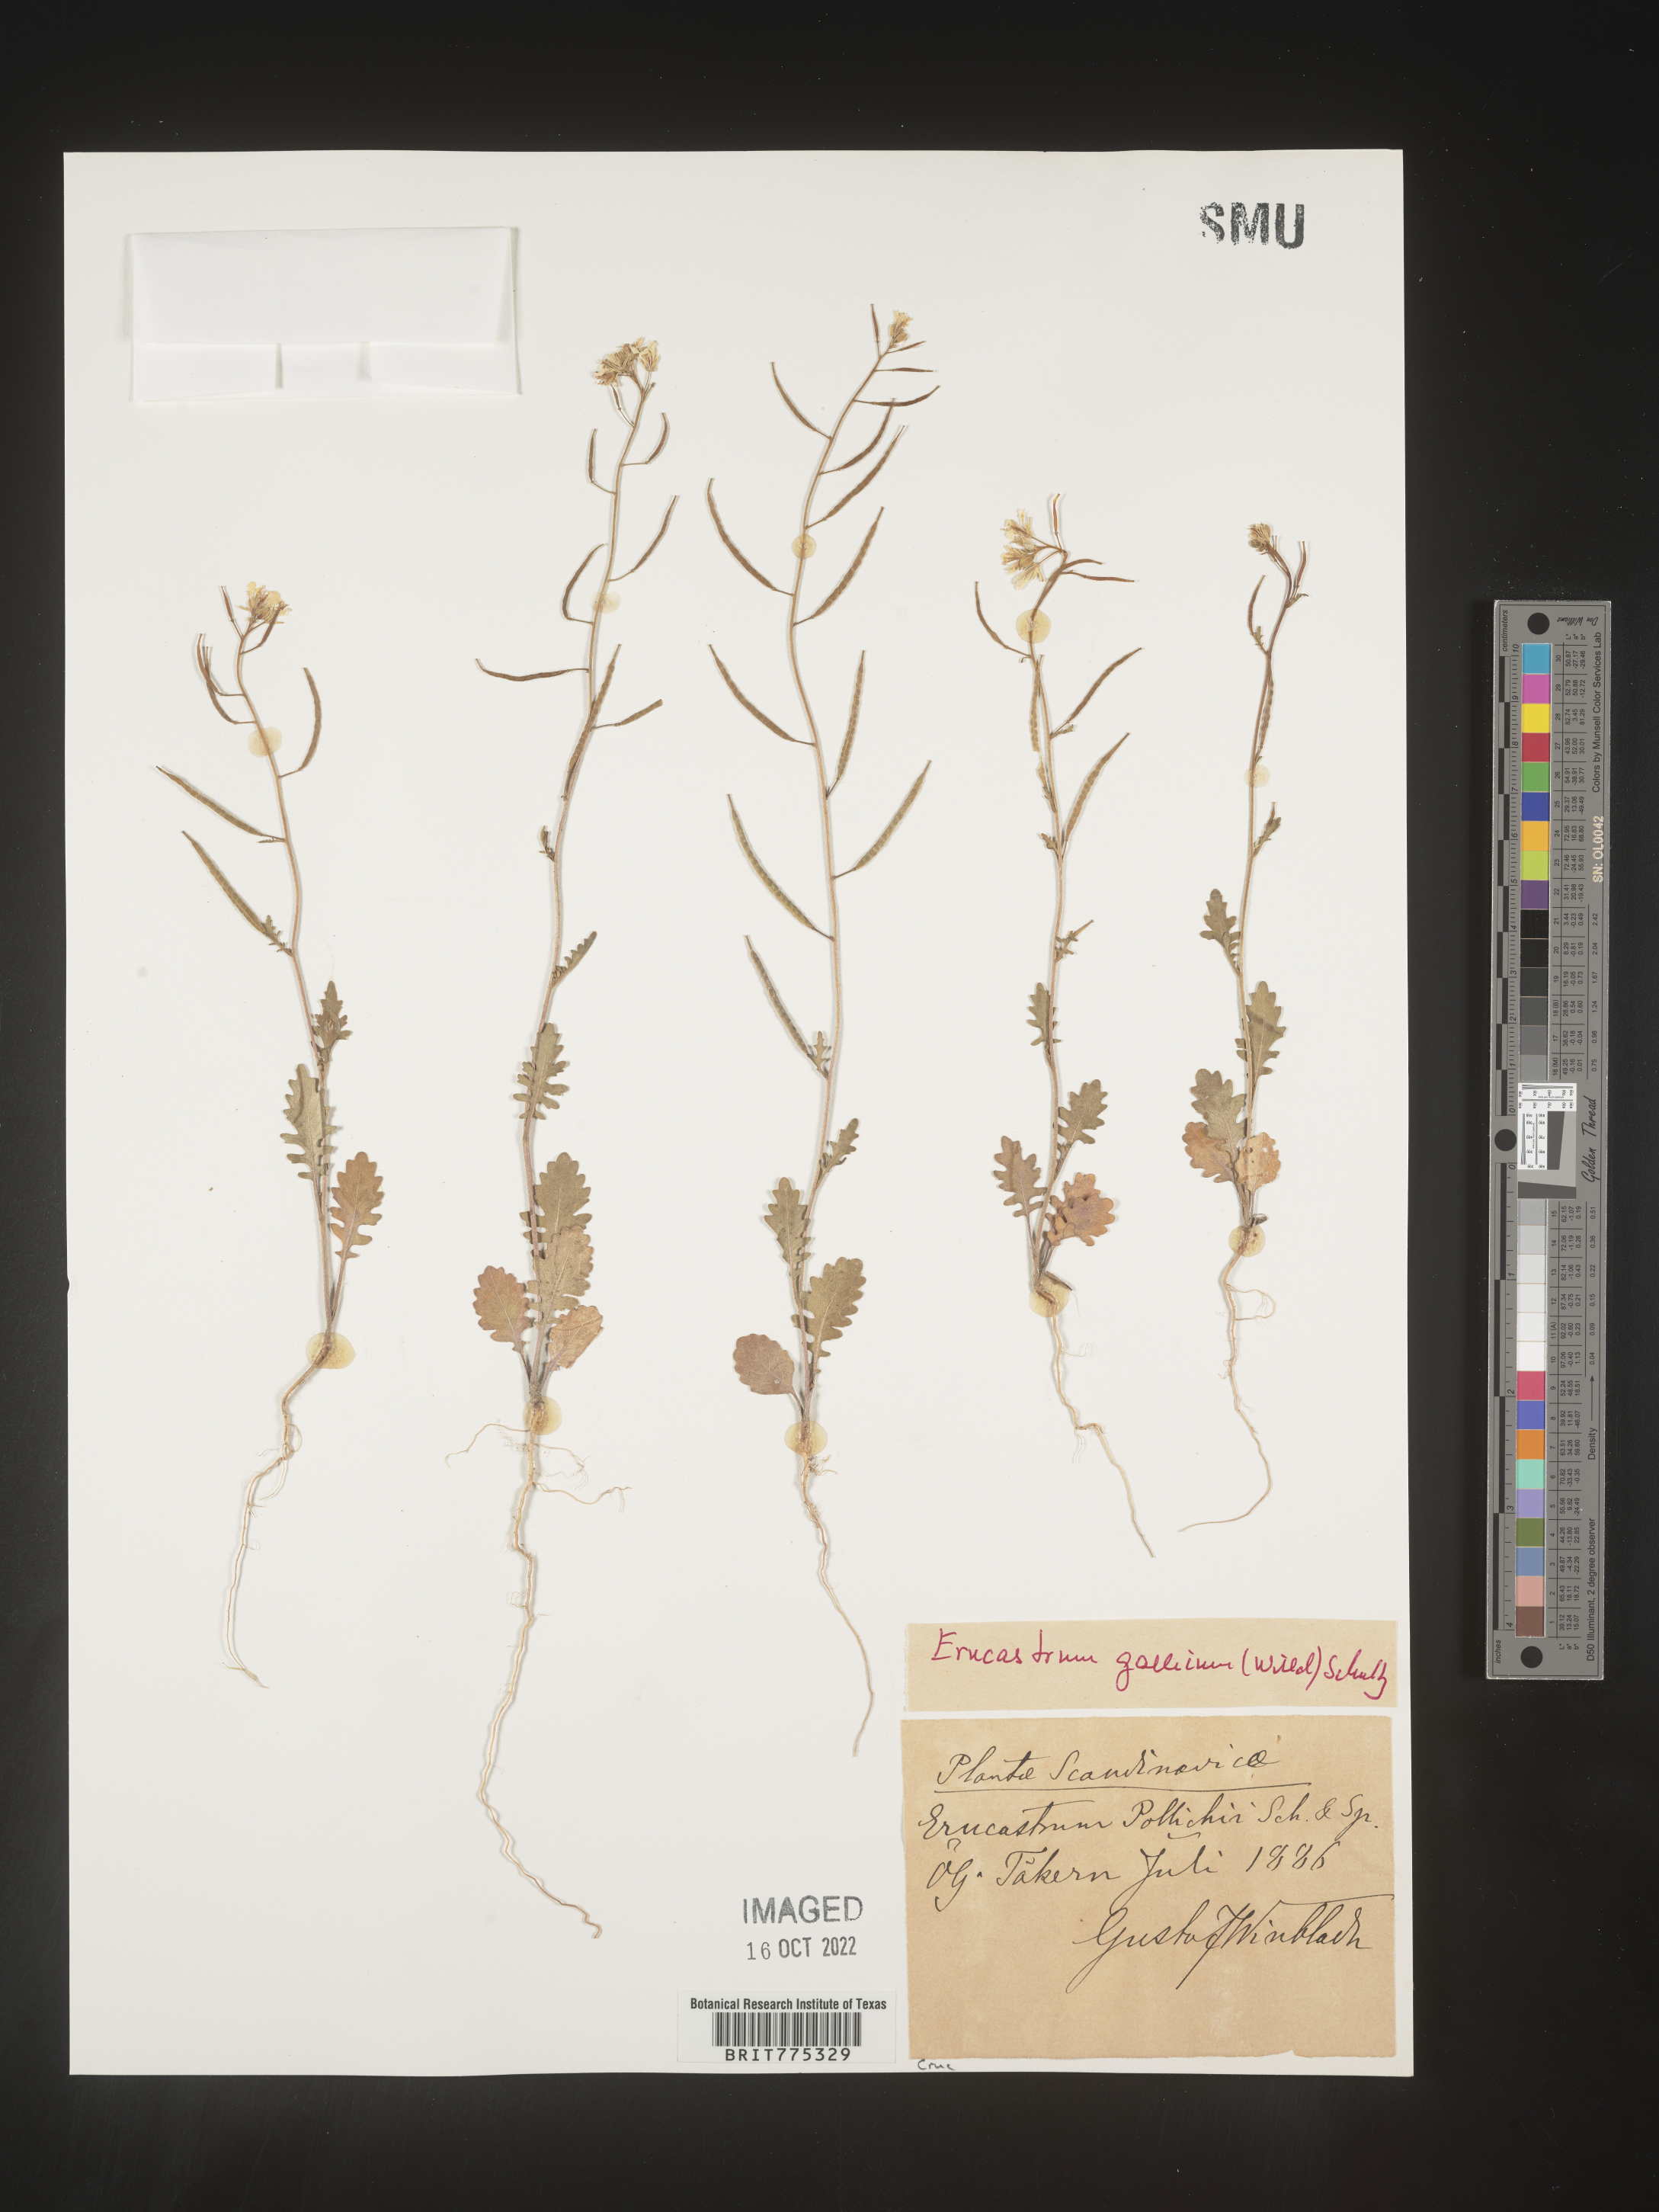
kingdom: Plantae
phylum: Tracheophyta
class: Magnoliopsida
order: Brassicales
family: Brassicaceae
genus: Erucastrum
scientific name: Erucastrum
